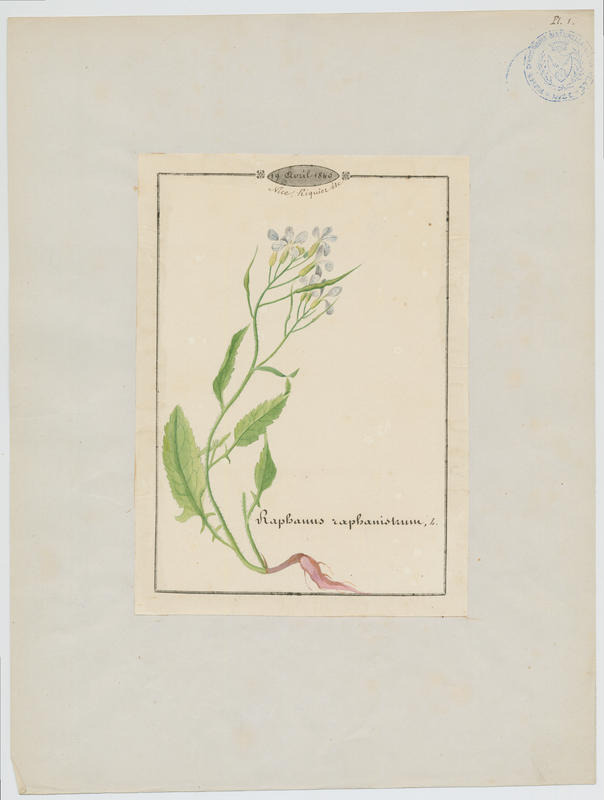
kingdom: Plantae
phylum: Tracheophyta
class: Magnoliopsida
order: Brassicales
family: Brassicaceae
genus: Raphanus
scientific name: Raphanus raphanistrum
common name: Wild radish
